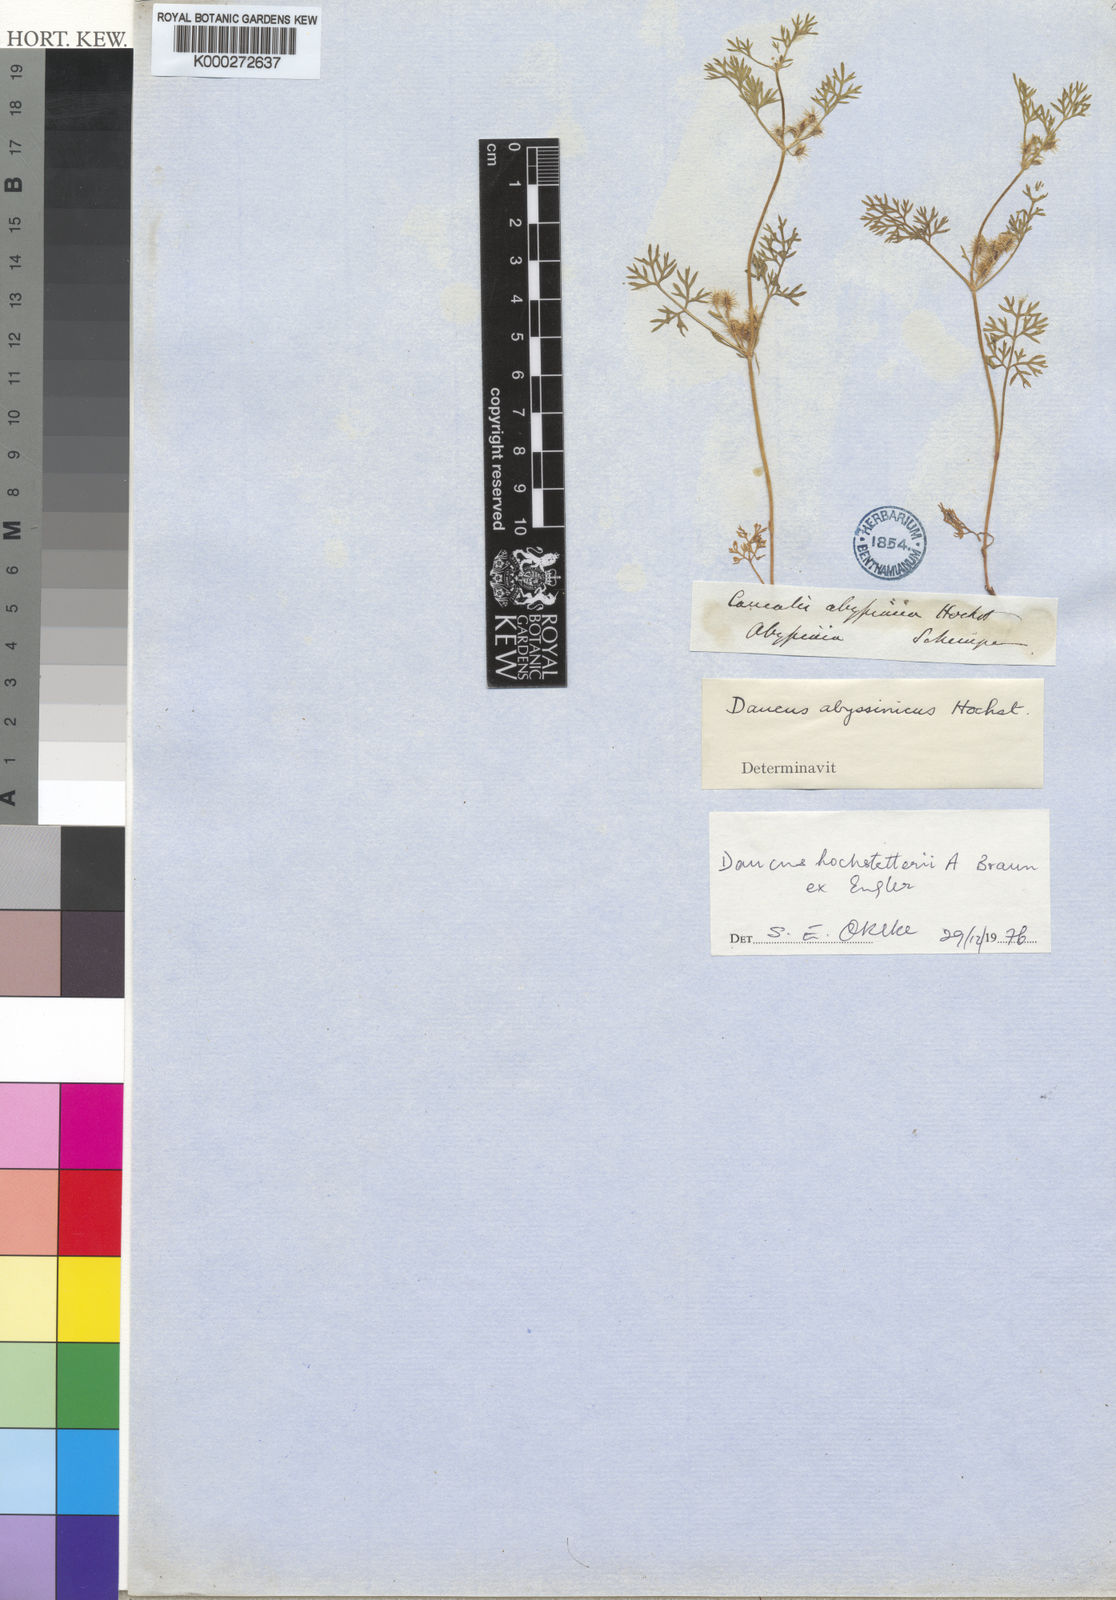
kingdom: Plantae
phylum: Tracheophyta
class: Magnoliopsida
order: Apiales
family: Apiaceae
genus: Daucus
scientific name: Daucus
